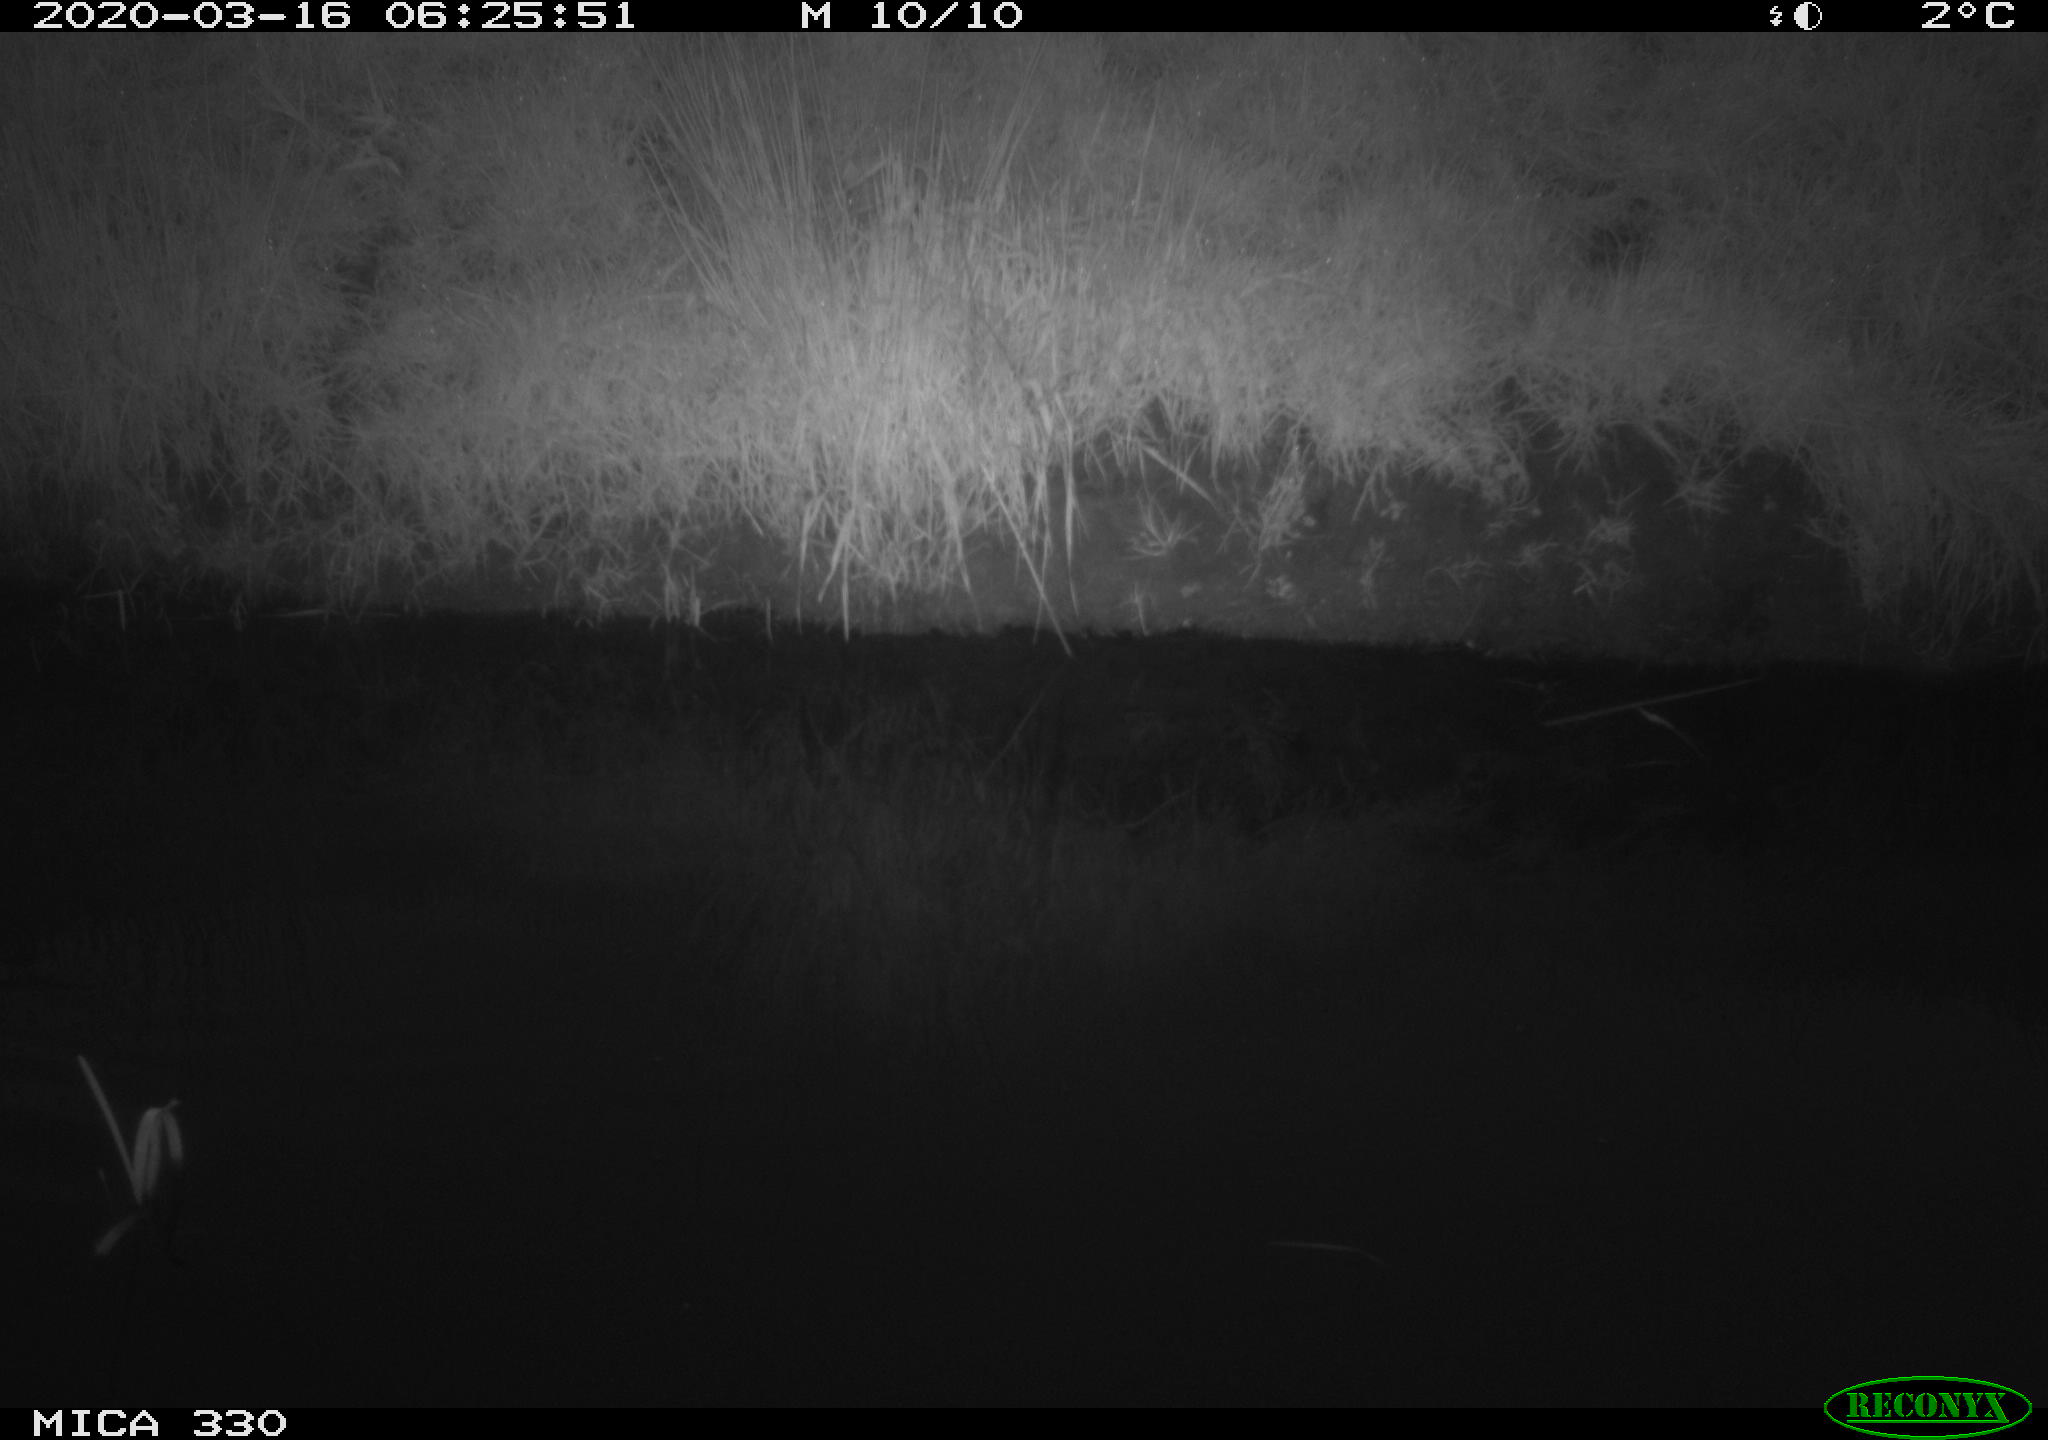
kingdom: Animalia
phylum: Chordata
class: Aves
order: Gruiformes
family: Rallidae
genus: Gallinula
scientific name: Gallinula chloropus
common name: Common moorhen
